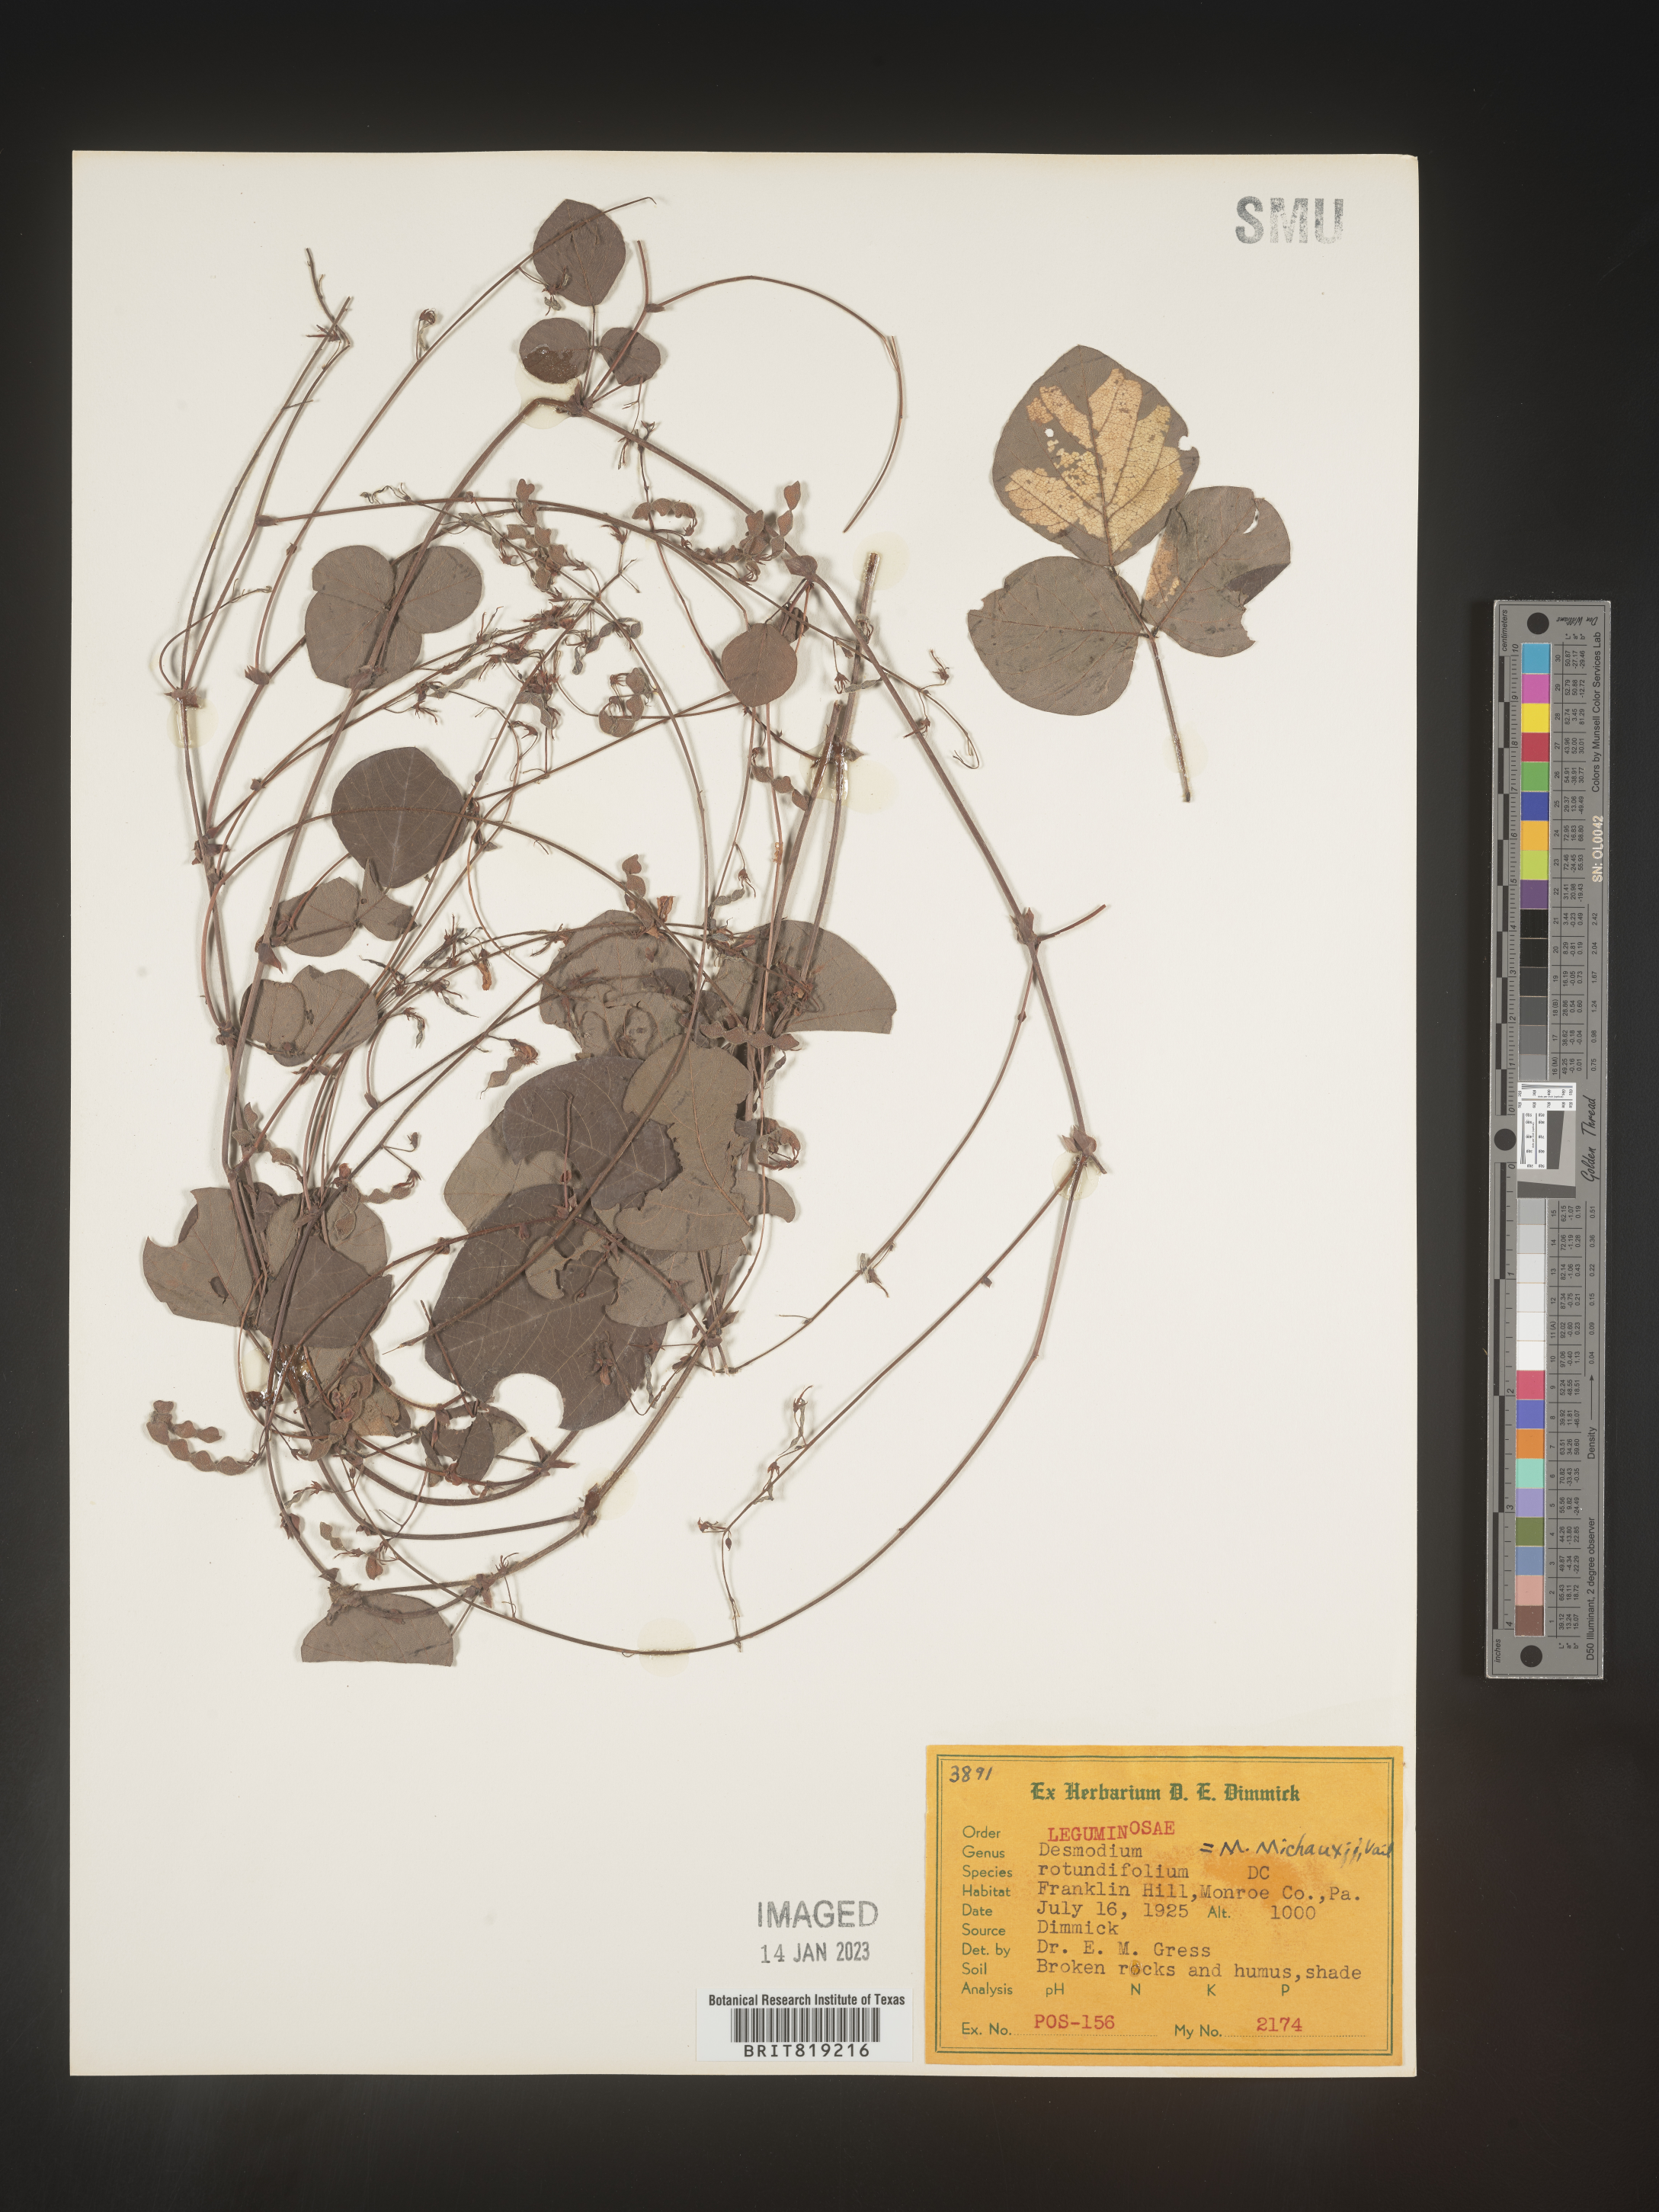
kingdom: Plantae
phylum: Tracheophyta
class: Magnoliopsida
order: Fabales
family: Fabaceae
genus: Desmodium
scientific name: Desmodium rotundifolium
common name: Dollarleaf
